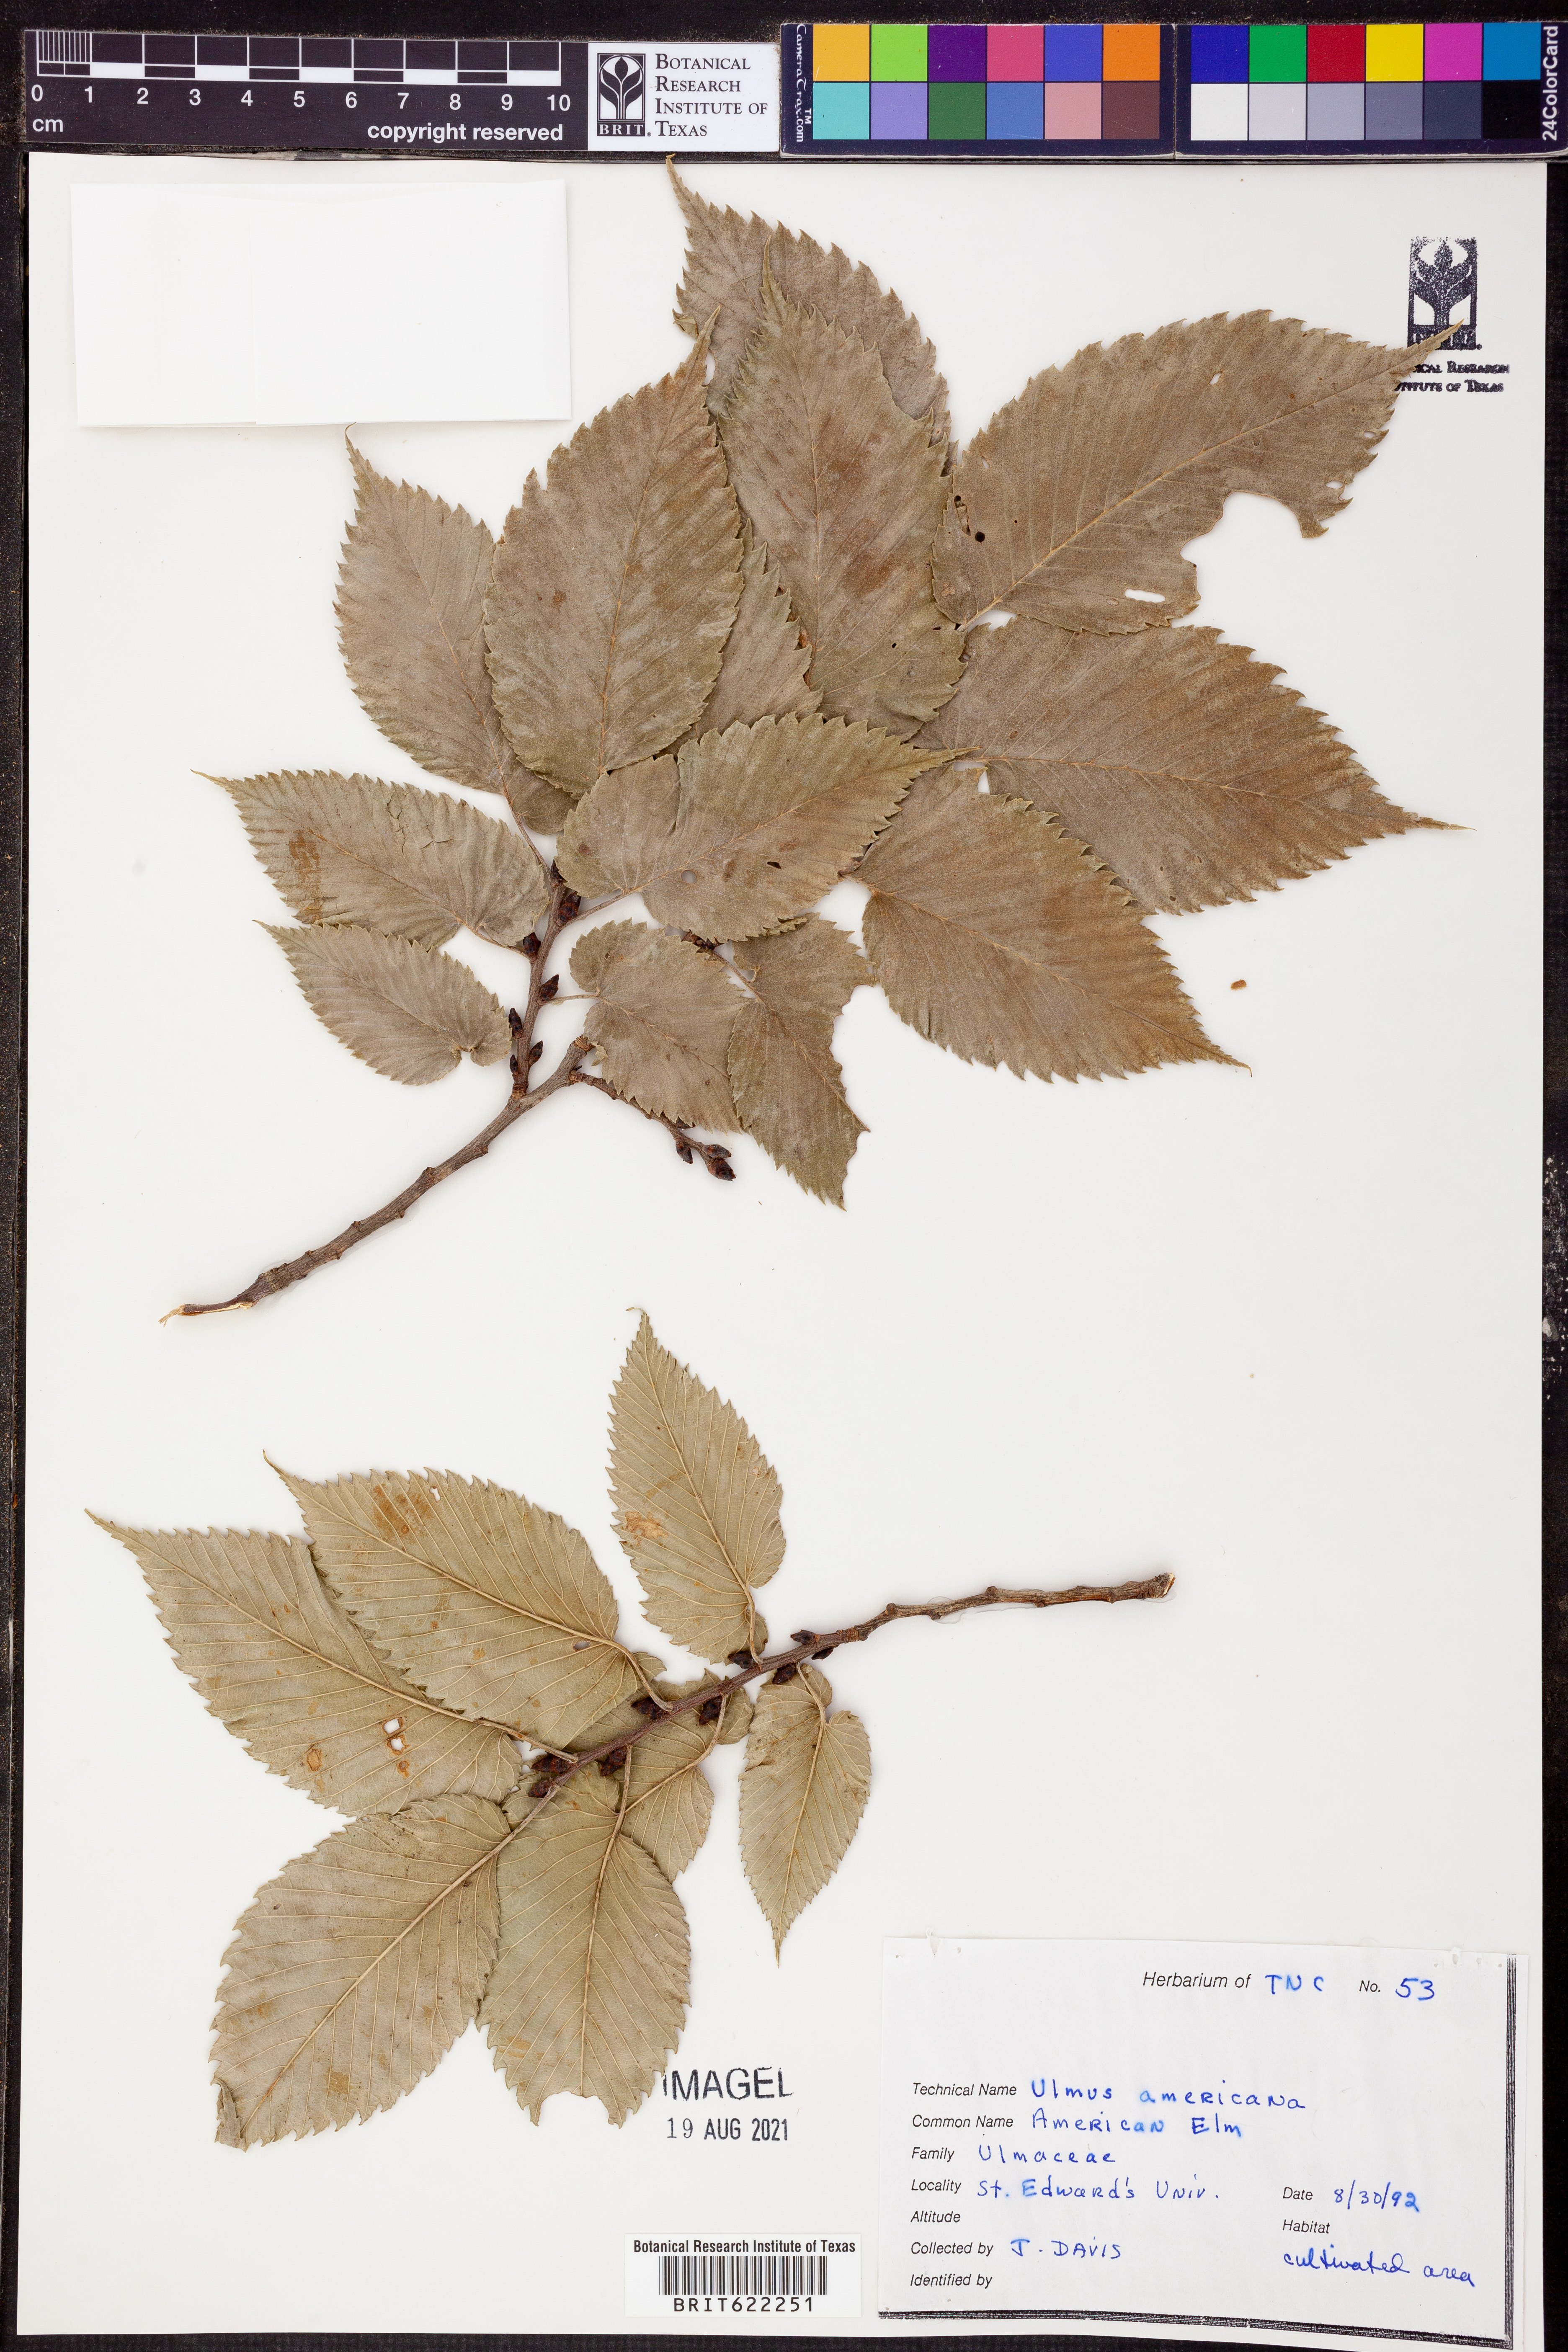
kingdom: Plantae
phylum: Tracheophyta
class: Magnoliopsida
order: Rosales
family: Ulmaceae
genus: Ulmus
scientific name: Ulmus americana
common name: American elm
